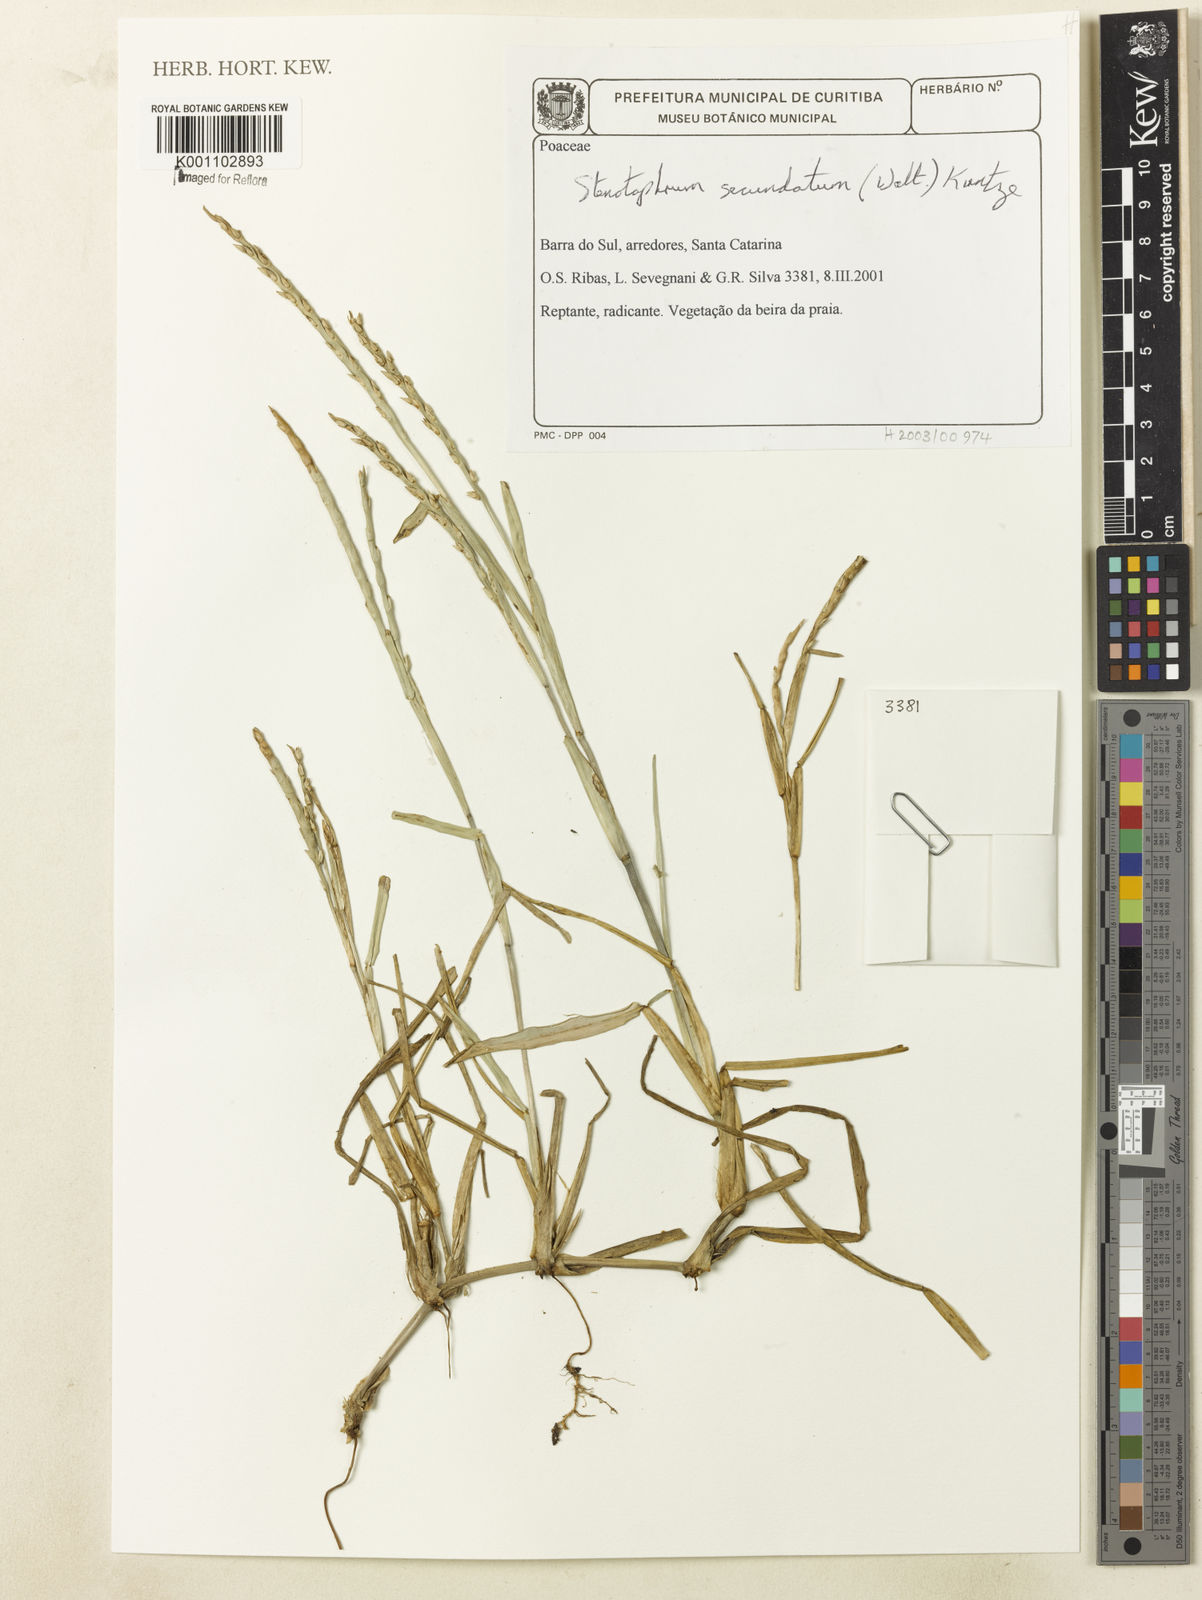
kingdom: Plantae
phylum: Tracheophyta
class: Liliopsida
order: Poales
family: Poaceae
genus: Stenotaphrum
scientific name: Stenotaphrum secundatum
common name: St. augustine grass
